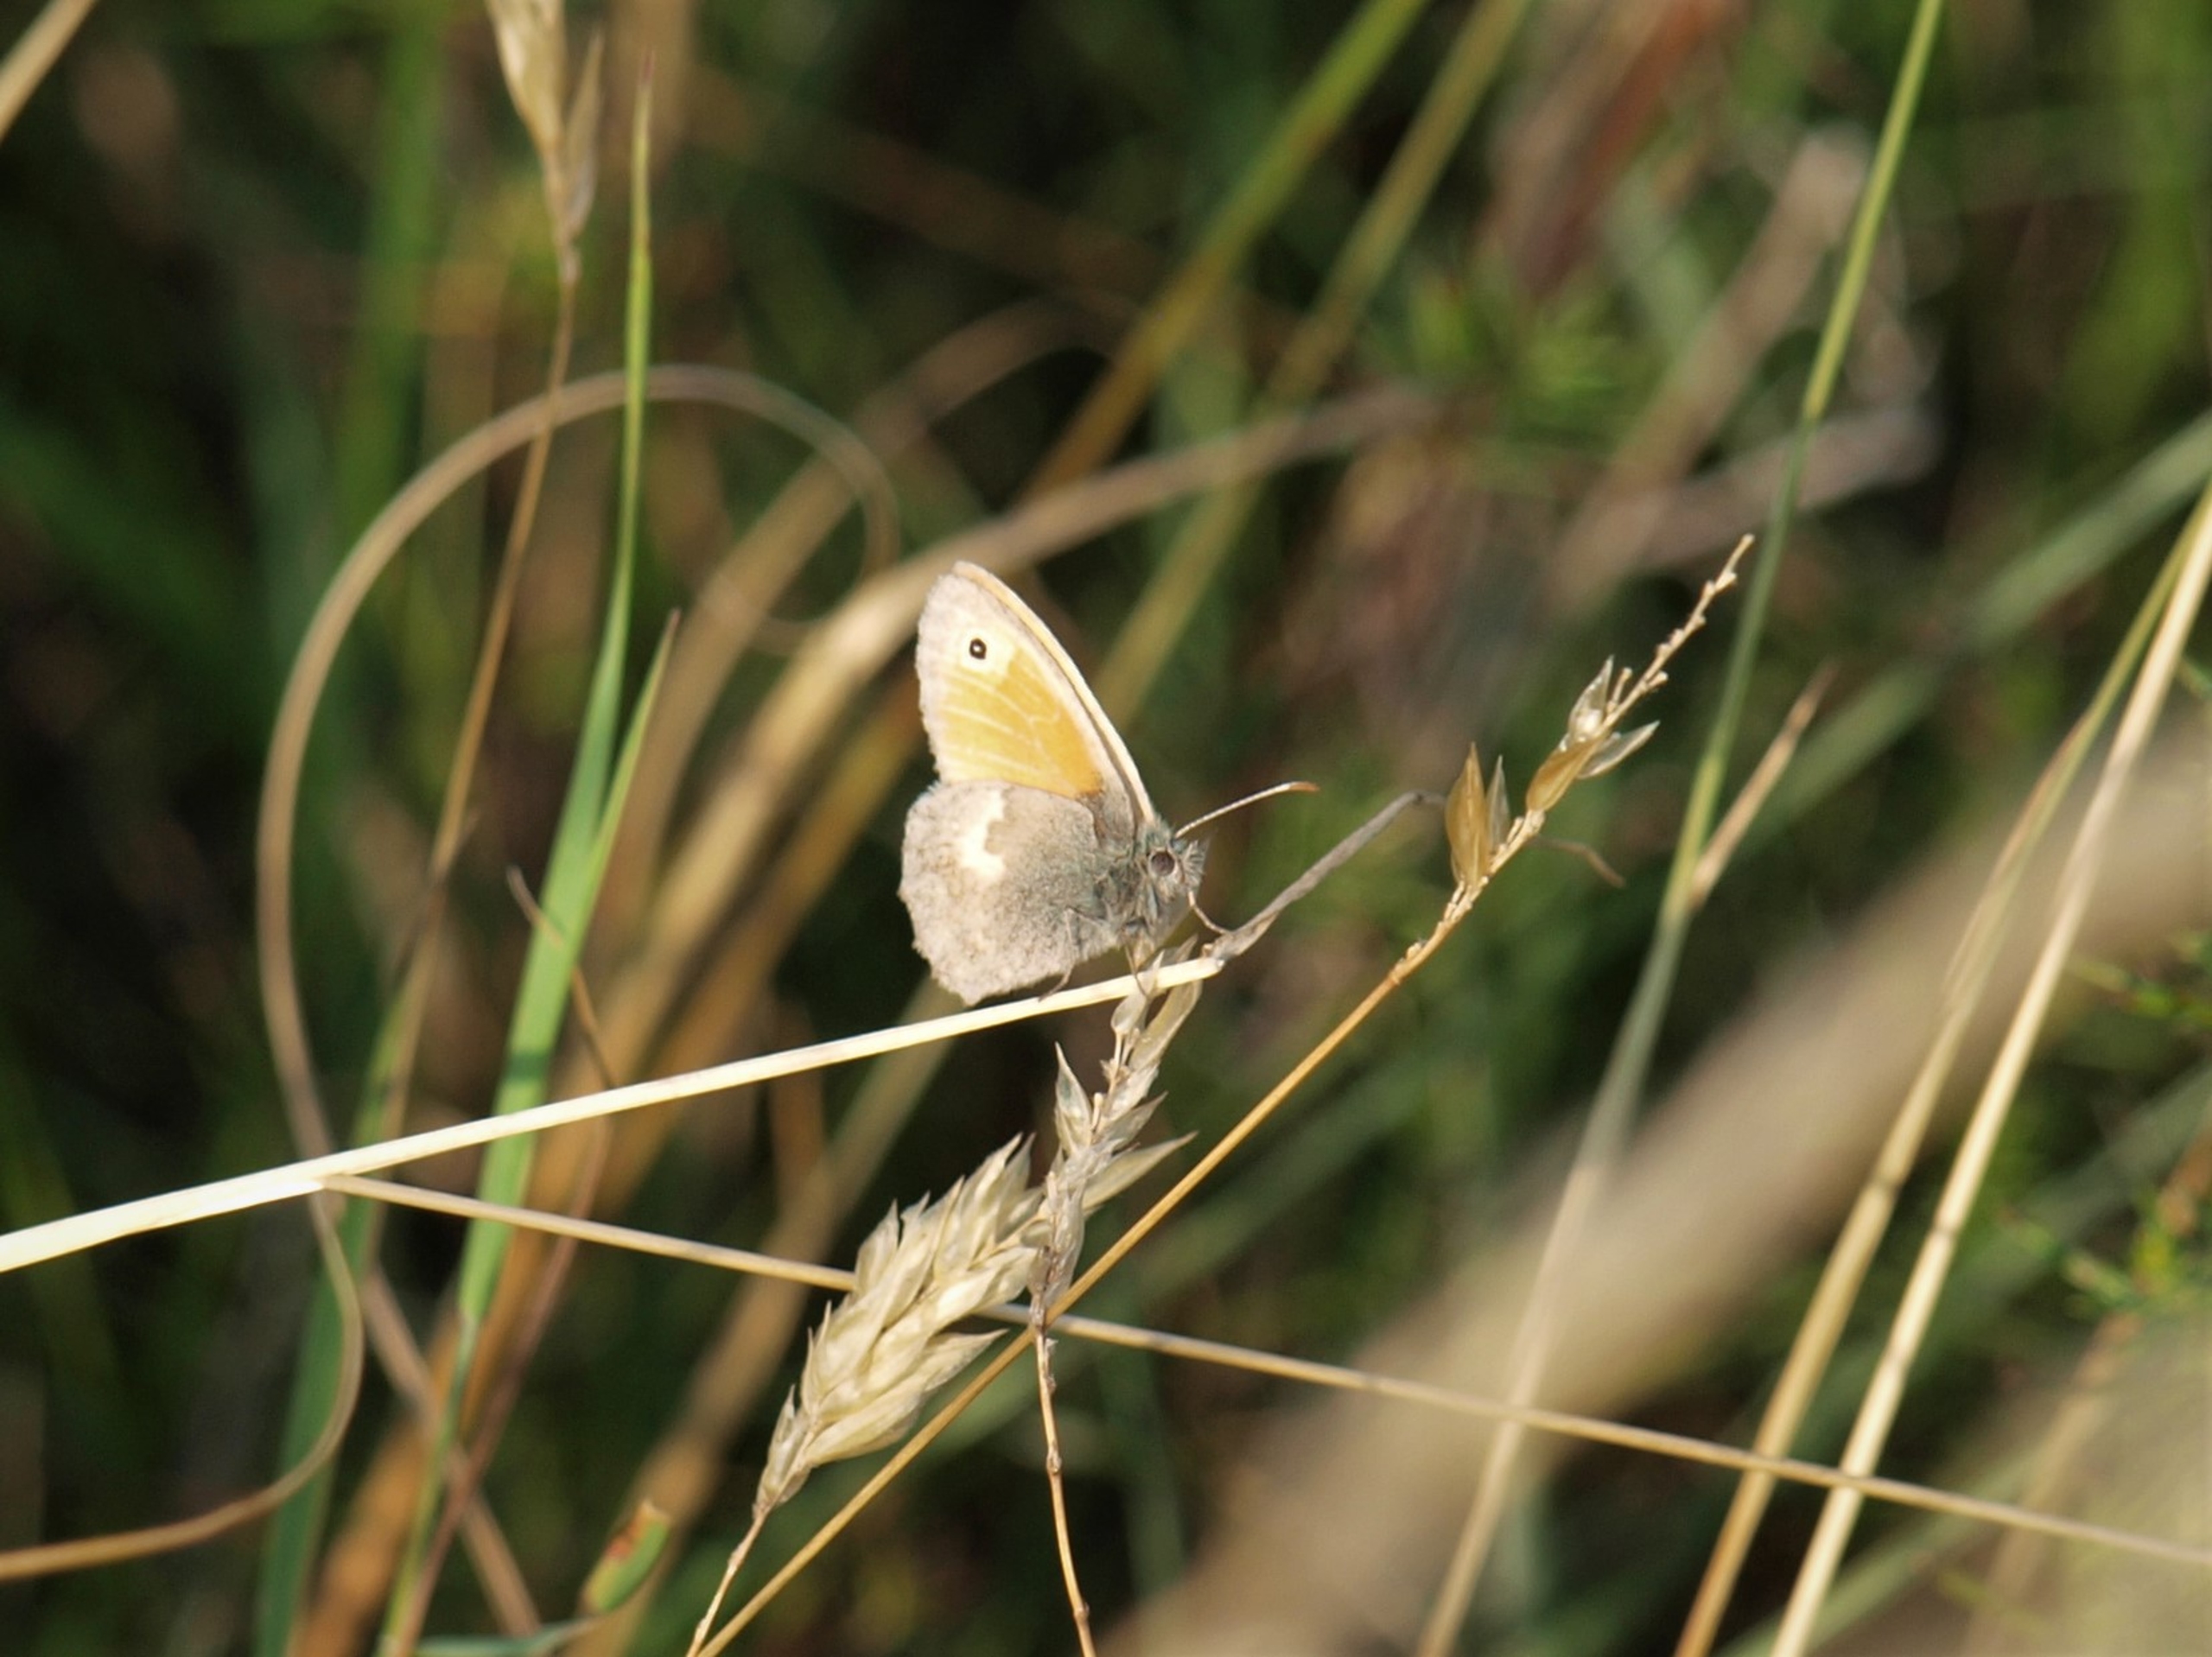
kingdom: Animalia
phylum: Arthropoda
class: Insecta
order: Lepidoptera
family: Nymphalidae
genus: Coenonympha
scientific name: Coenonympha pamphilus
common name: Okkergul randøje
